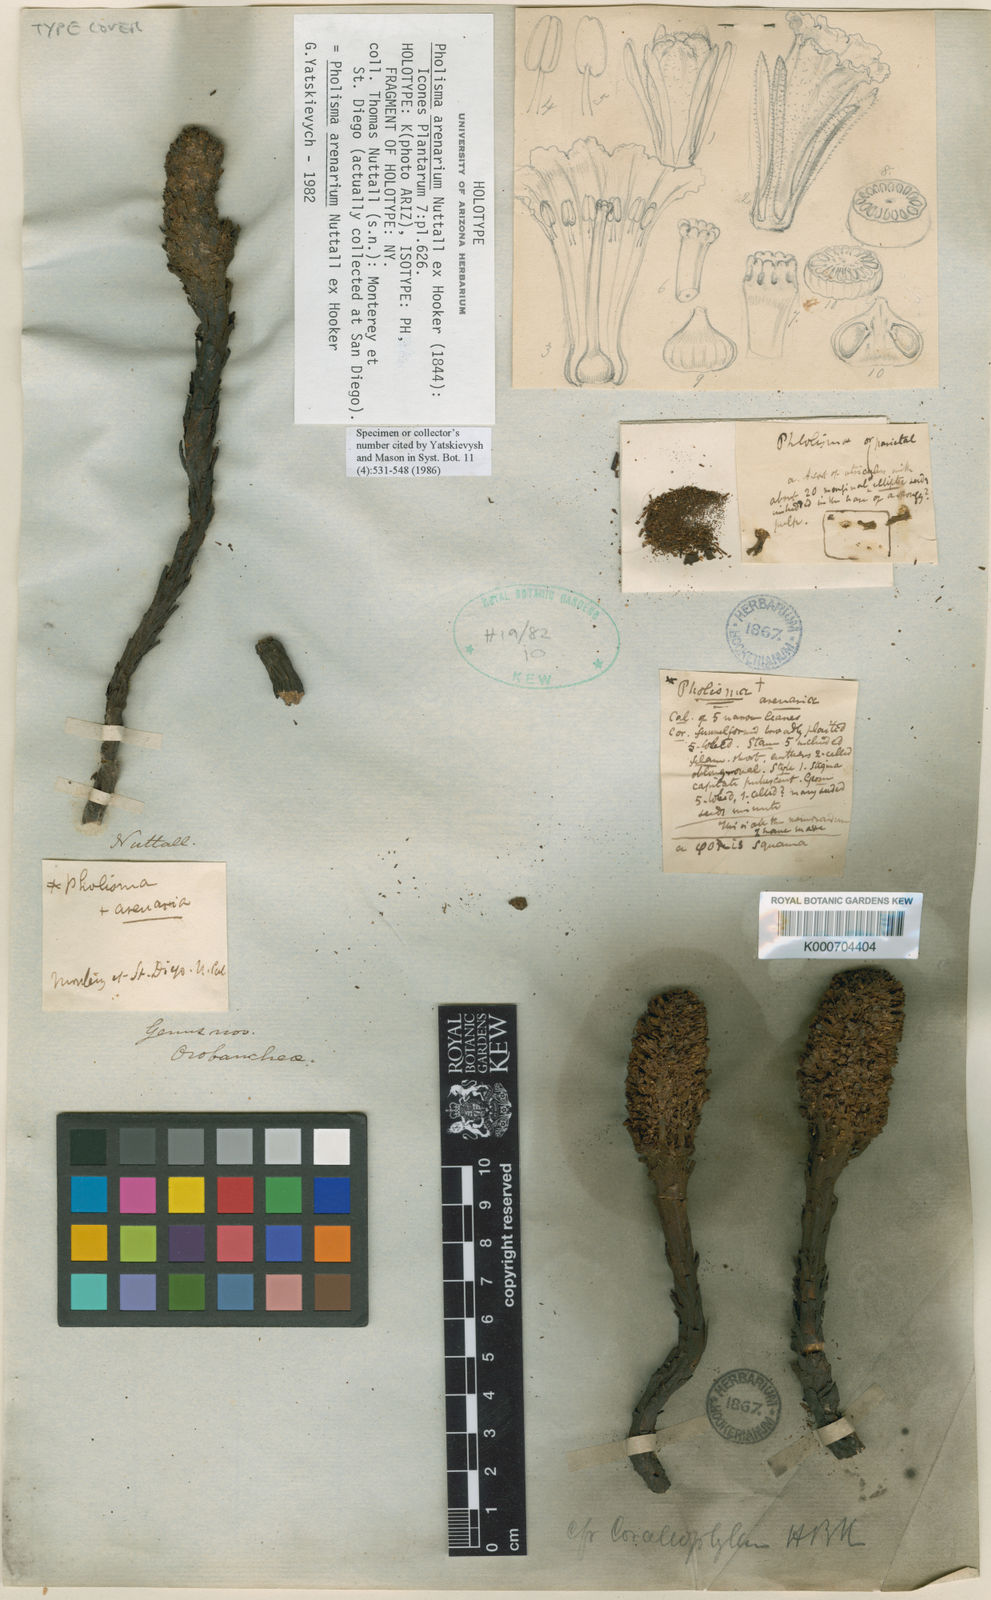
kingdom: Plantae
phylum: Tracheophyta
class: Magnoliopsida
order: Boraginales
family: Lennoaceae
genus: Pholisma
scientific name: Pholisma arenarium
